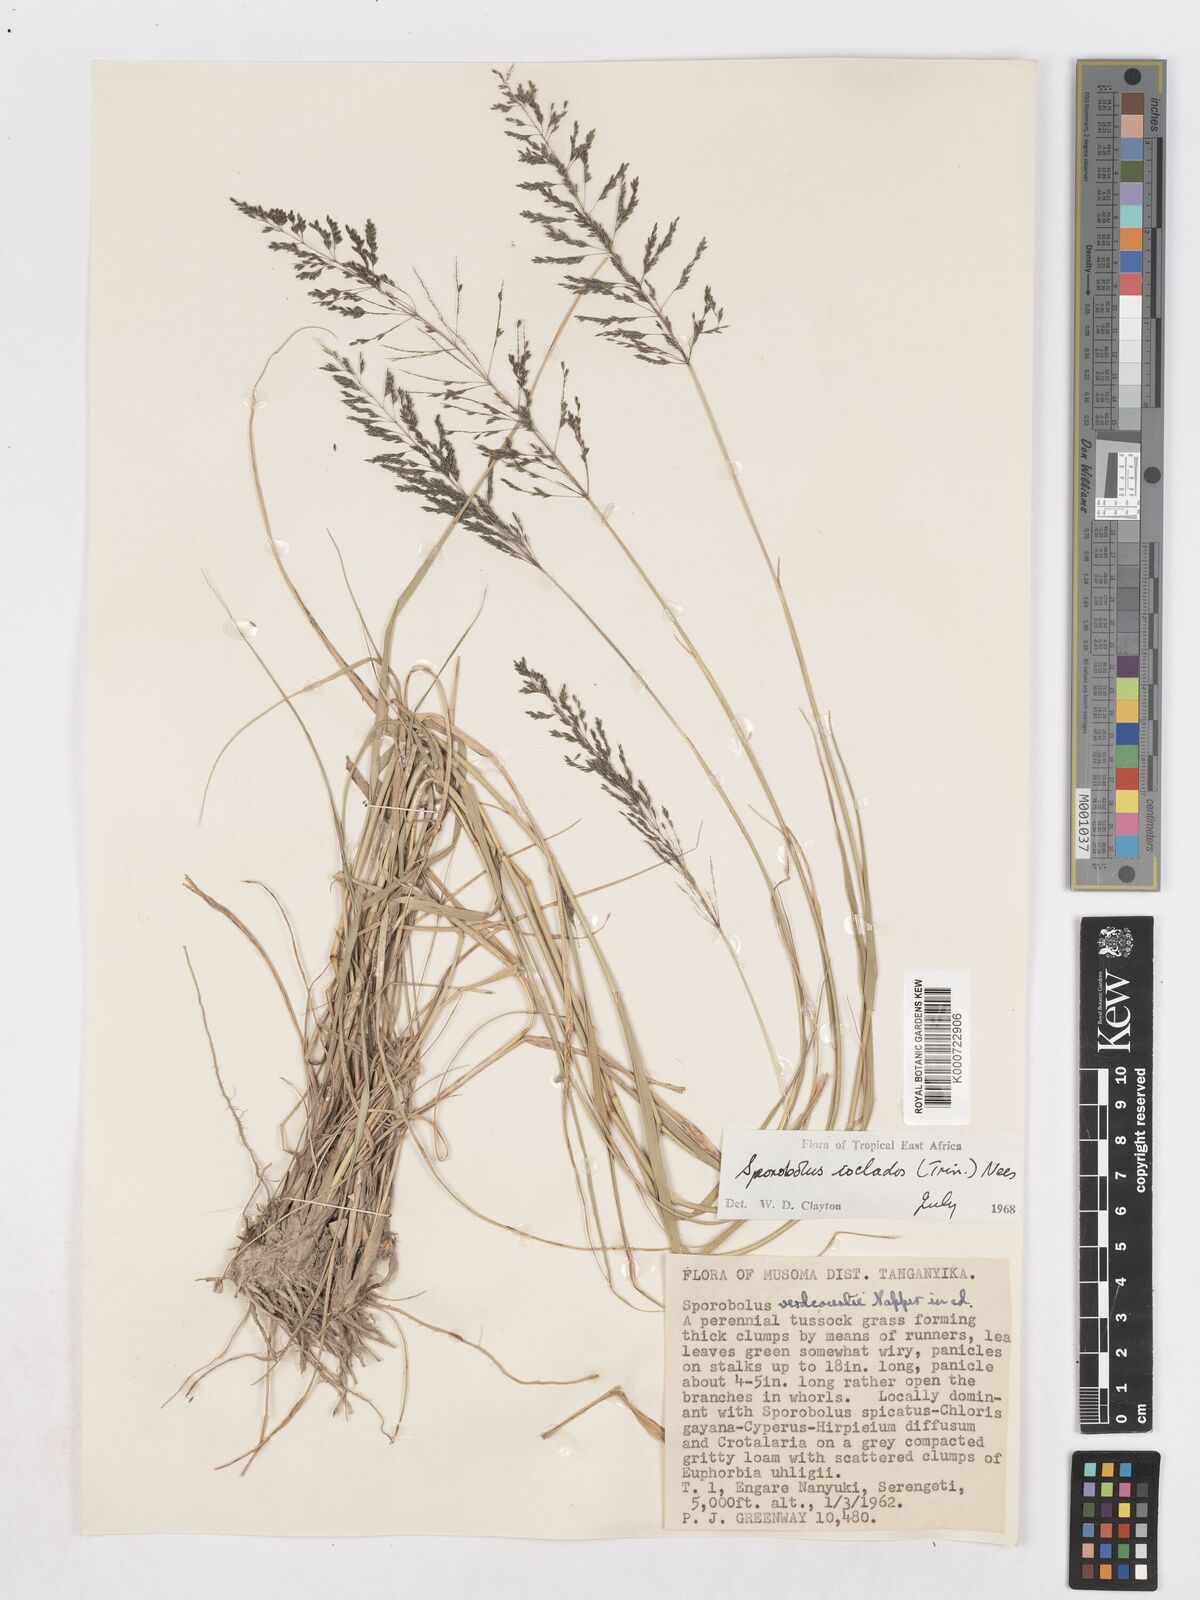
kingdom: Plantae
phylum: Tracheophyta
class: Liliopsida
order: Poales
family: Poaceae
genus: Sporobolus
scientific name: Sporobolus ioclados
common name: Pan dropseed
